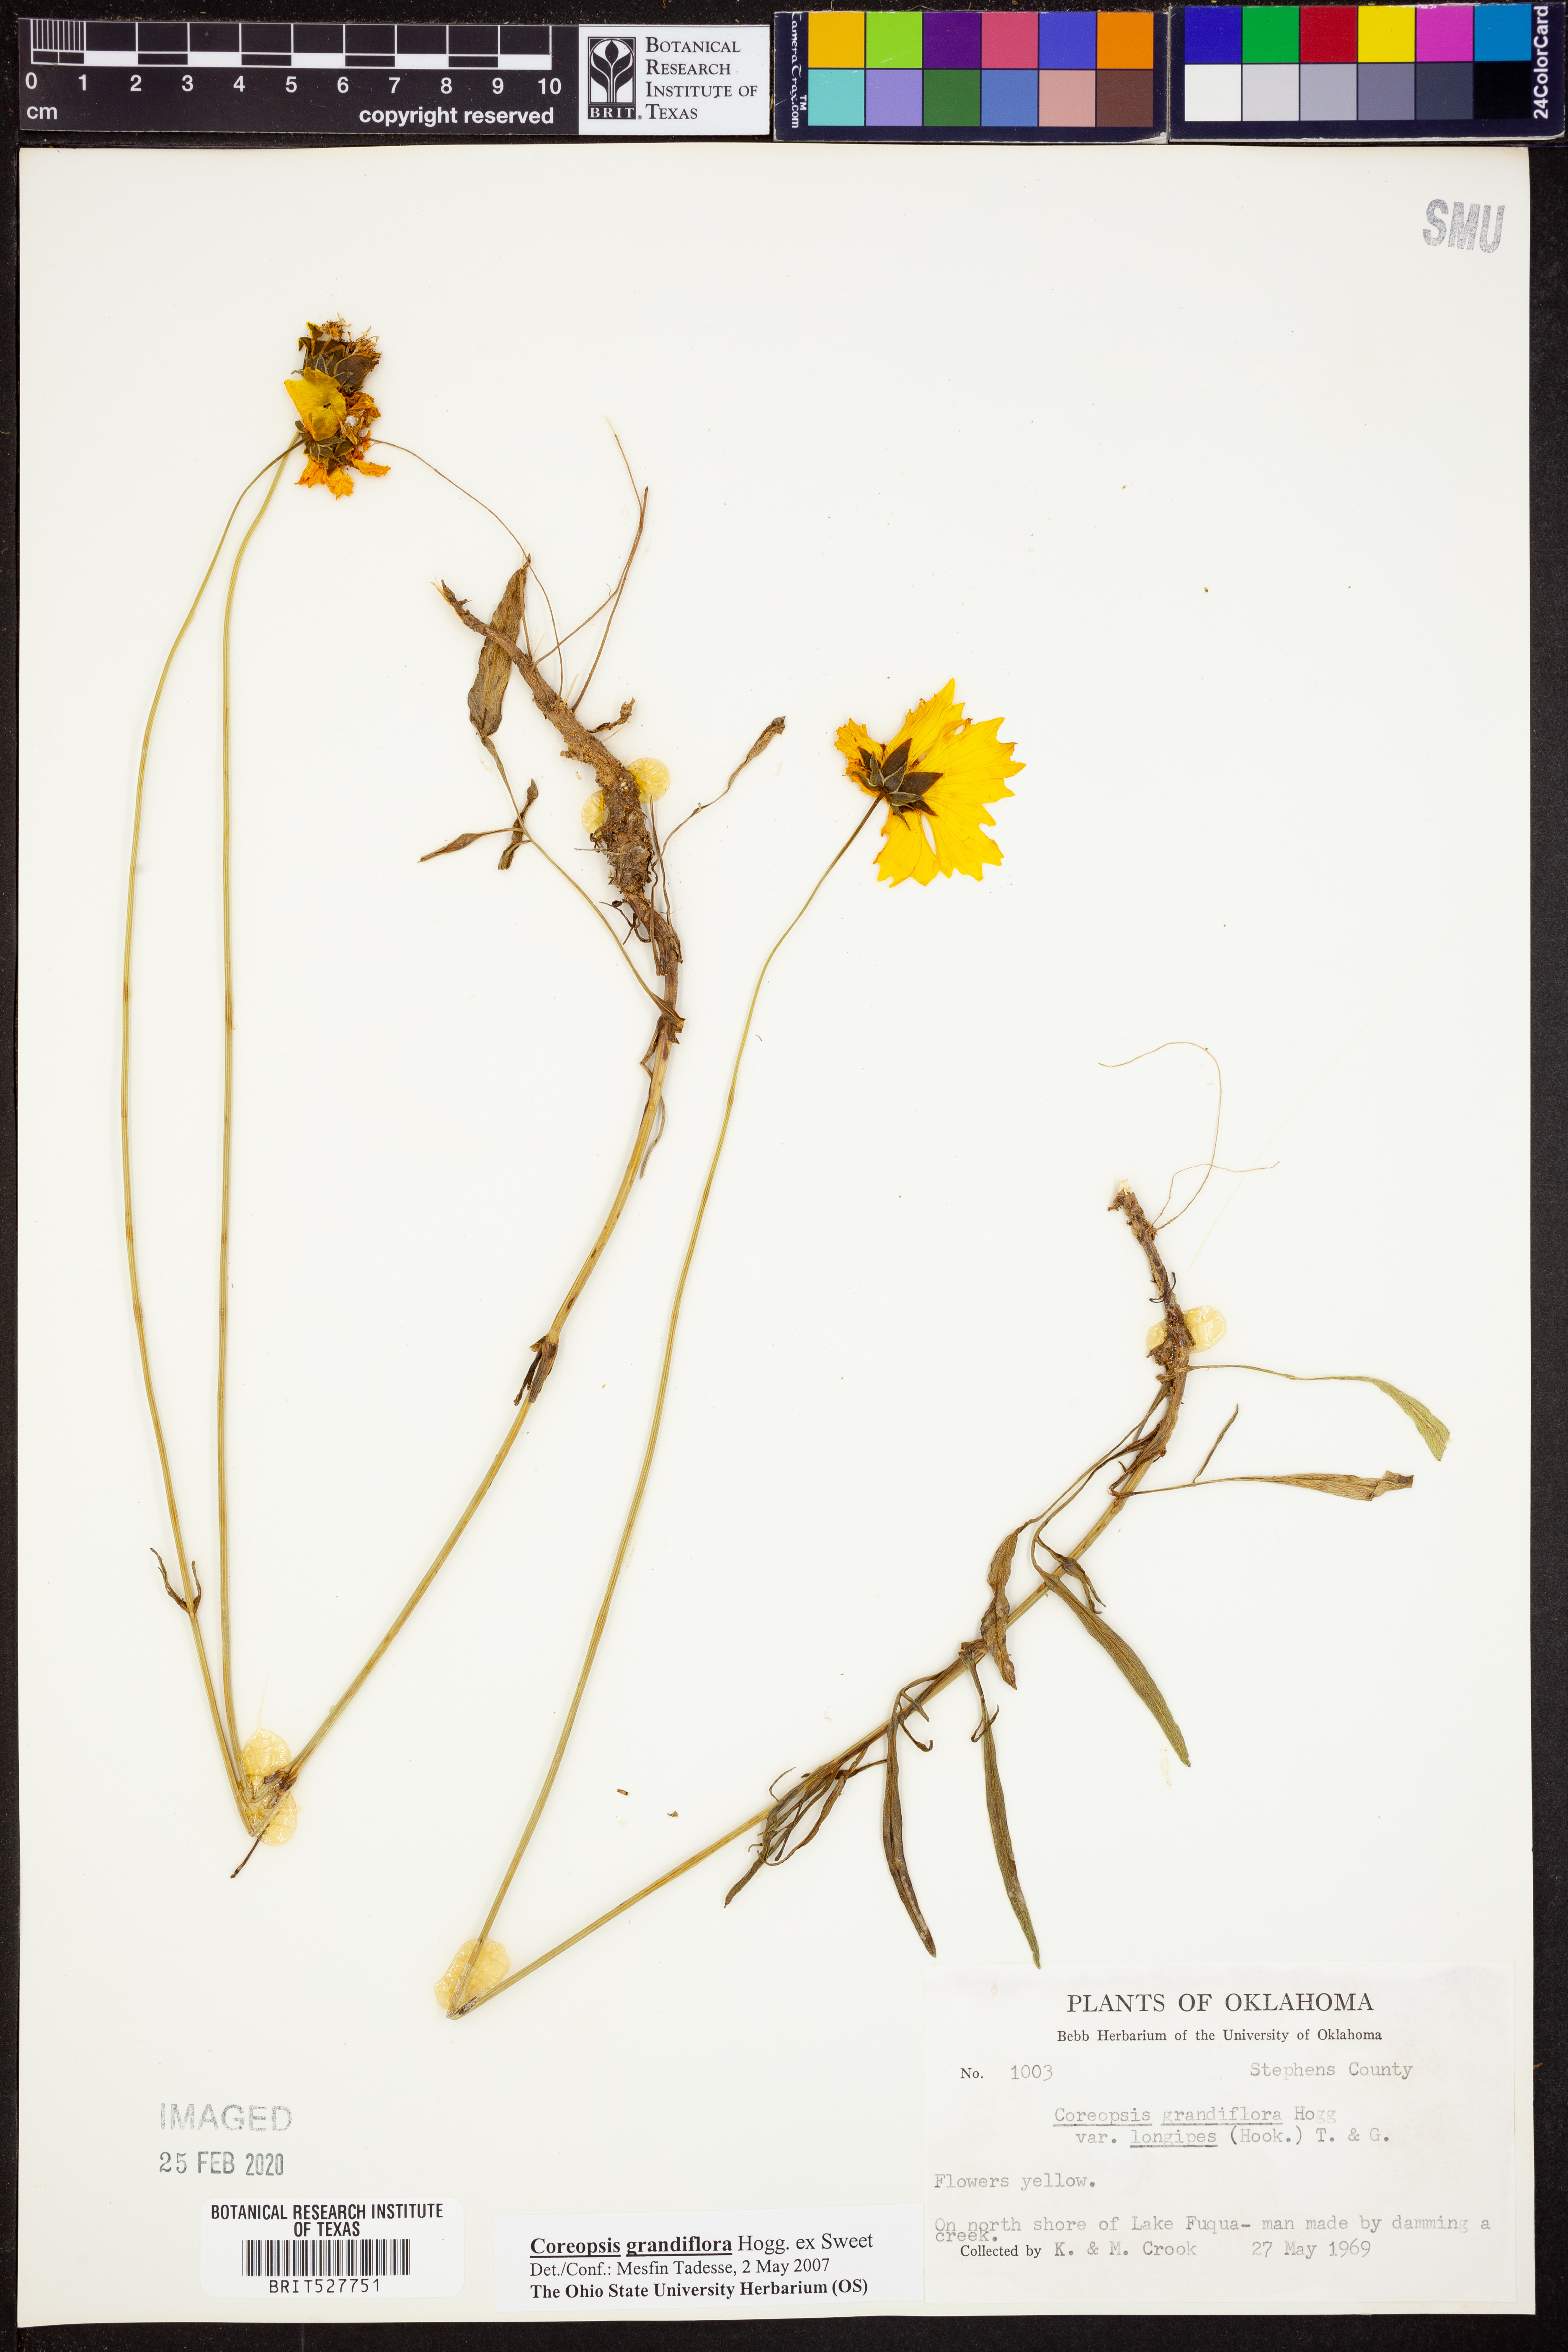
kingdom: Plantae
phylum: Tracheophyta
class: Magnoliopsida
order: Asterales
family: Asteraceae
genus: Coreopsis
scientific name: Coreopsis grandiflora
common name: Large-flowered tickseed
